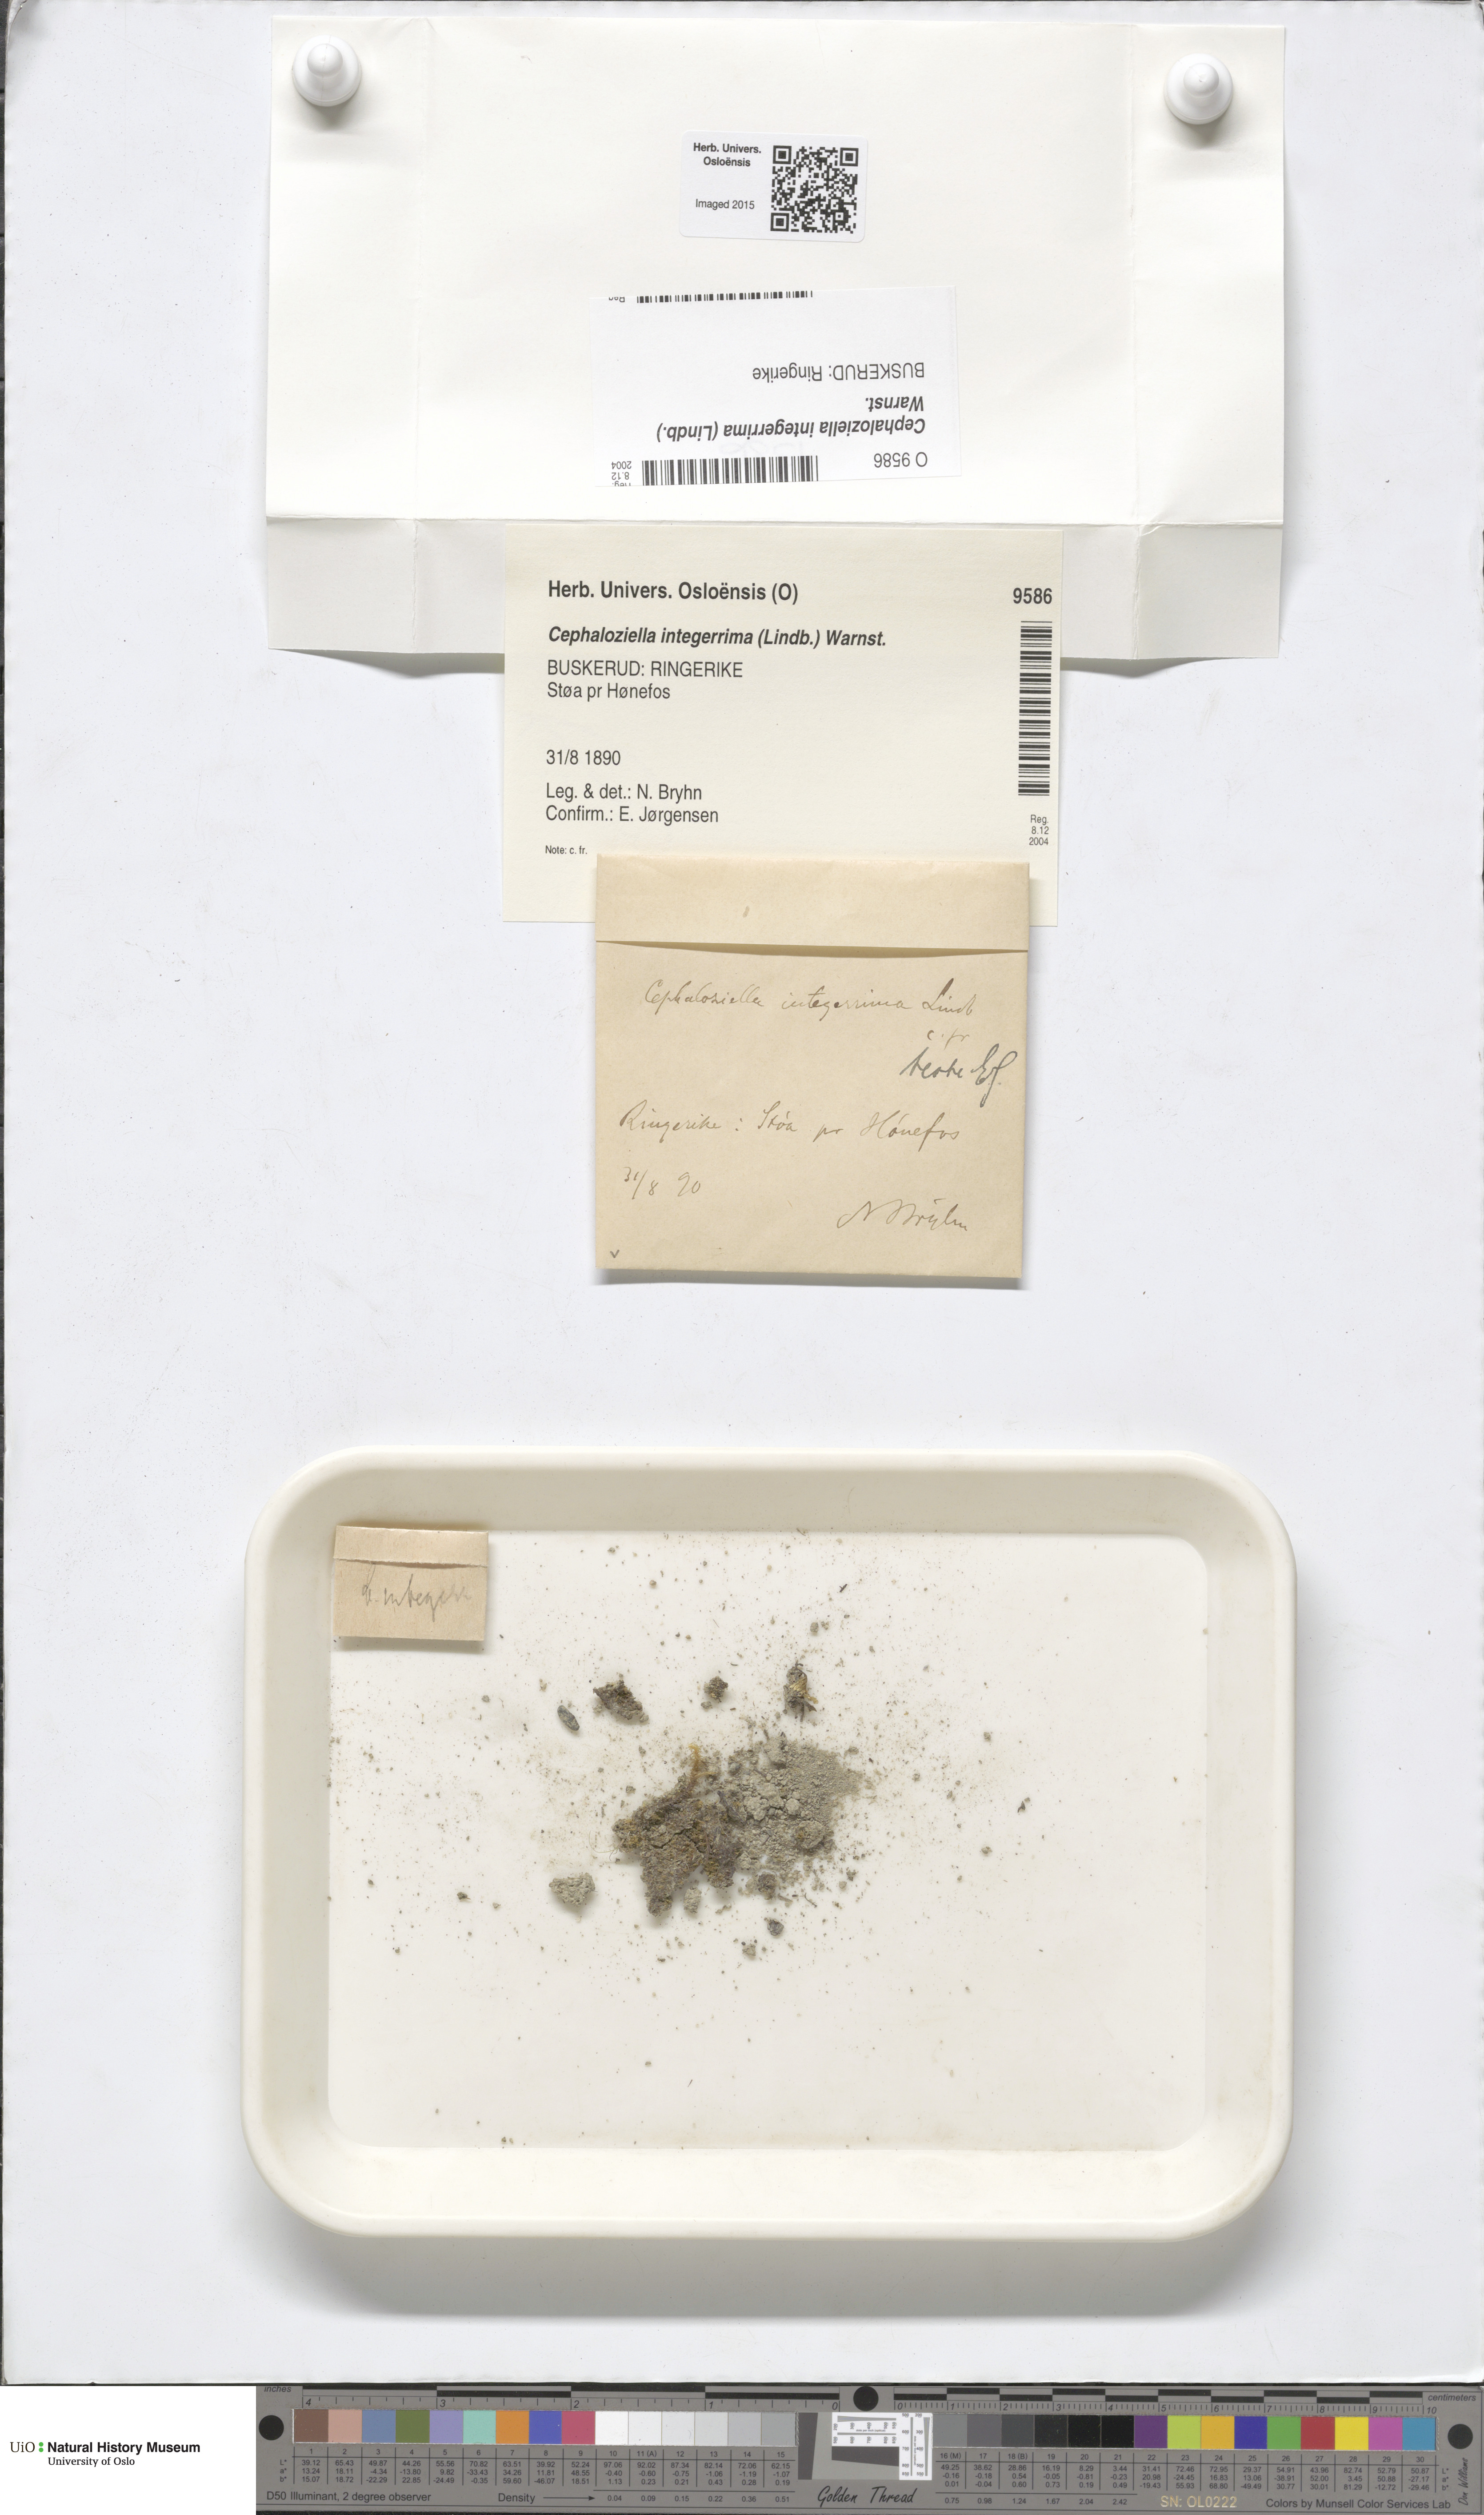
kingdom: Plantae
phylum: Marchantiophyta
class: Jungermanniopsida
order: Jungermanniales
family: Cephaloziellaceae
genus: Cephaloziella
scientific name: Cephaloziella integerrima
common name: Lobed threadwort
